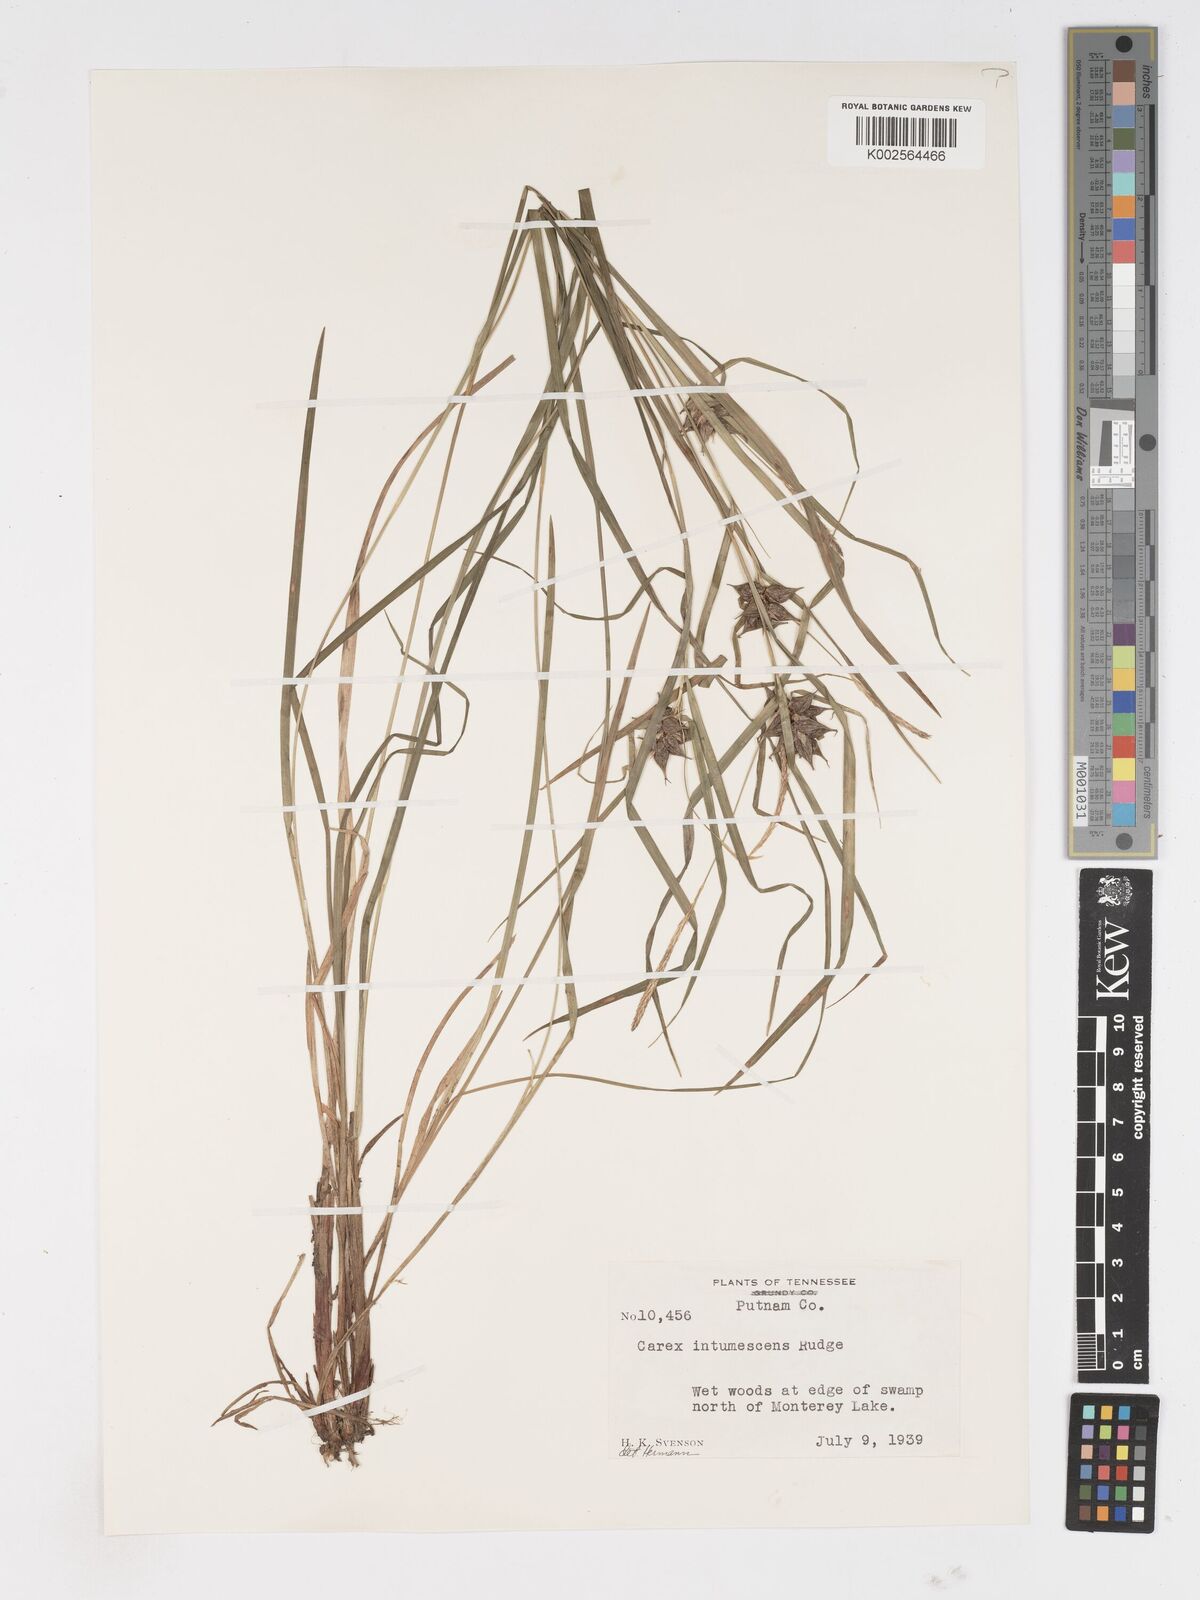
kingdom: Plantae
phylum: Tracheophyta
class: Liliopsida
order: Poales
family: Cyperaceae
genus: Carex
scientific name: Carex intumescens
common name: Greater bladder sedge
